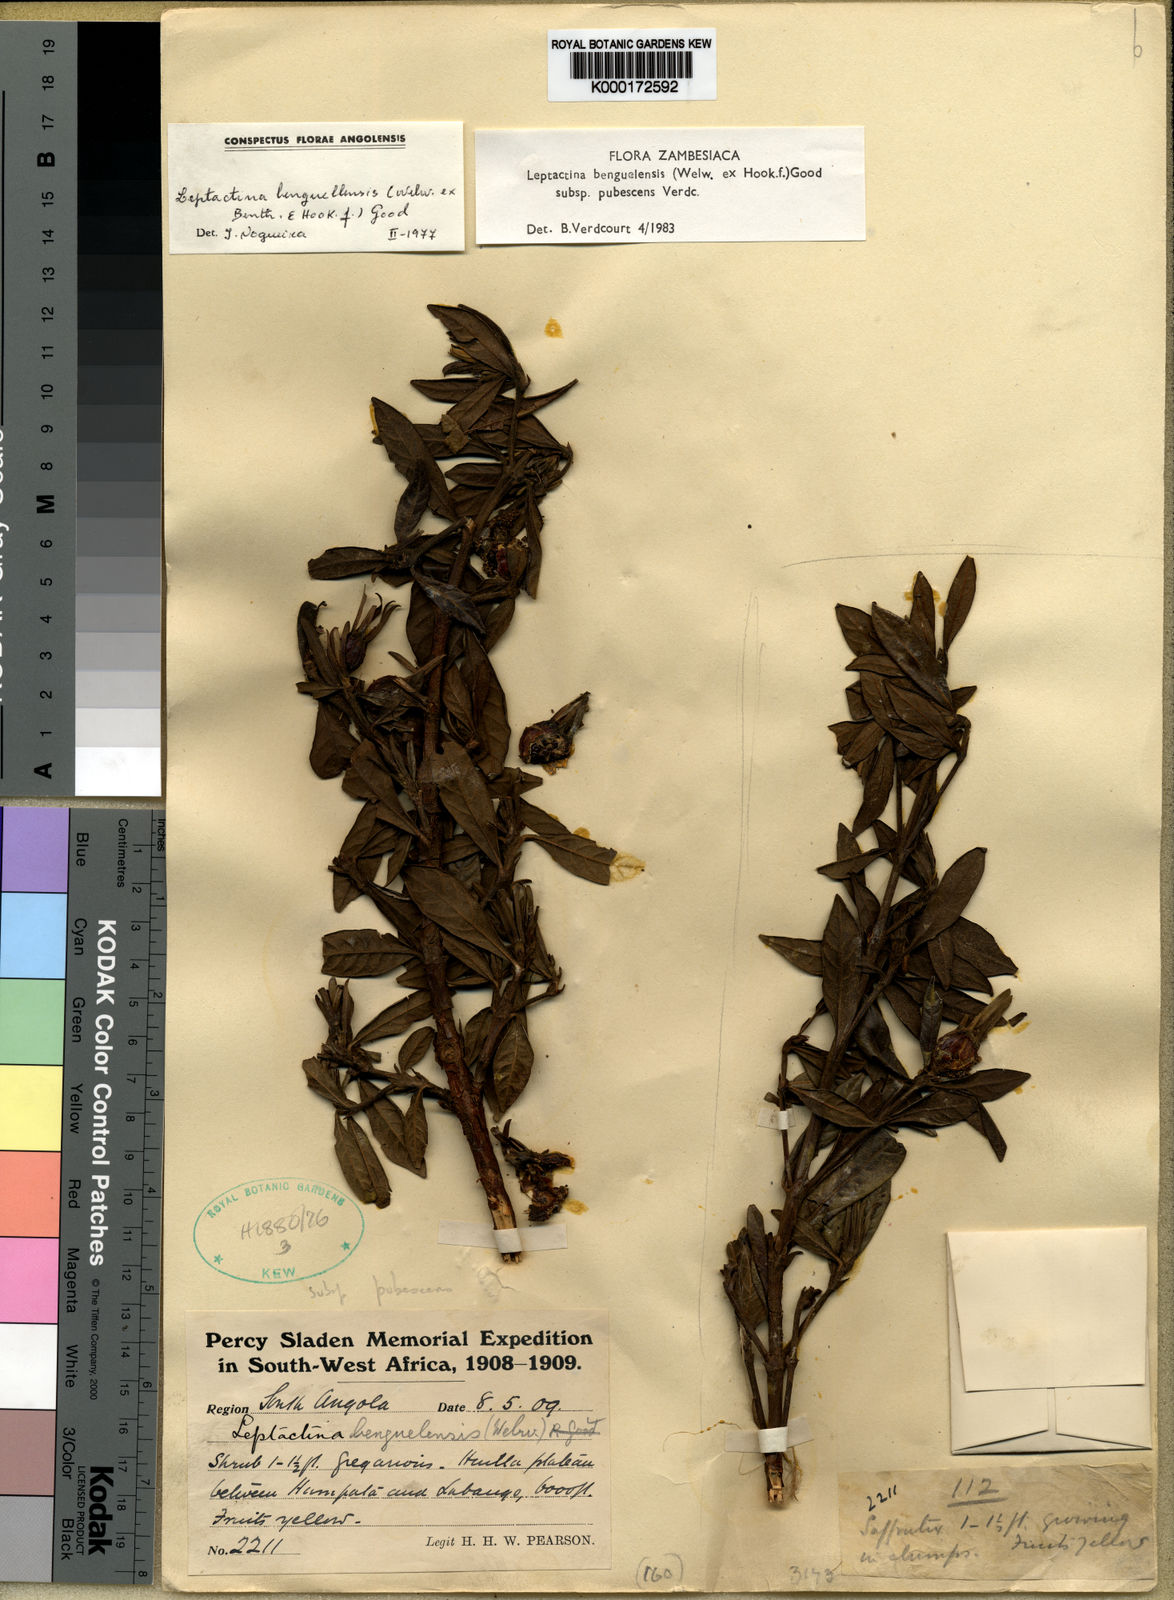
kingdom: Plantae
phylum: Tracheophyta
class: Magnoliopsida
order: Gentianales
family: Rubiaceae
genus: Leptactina
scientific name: Leptactina benguelensis
